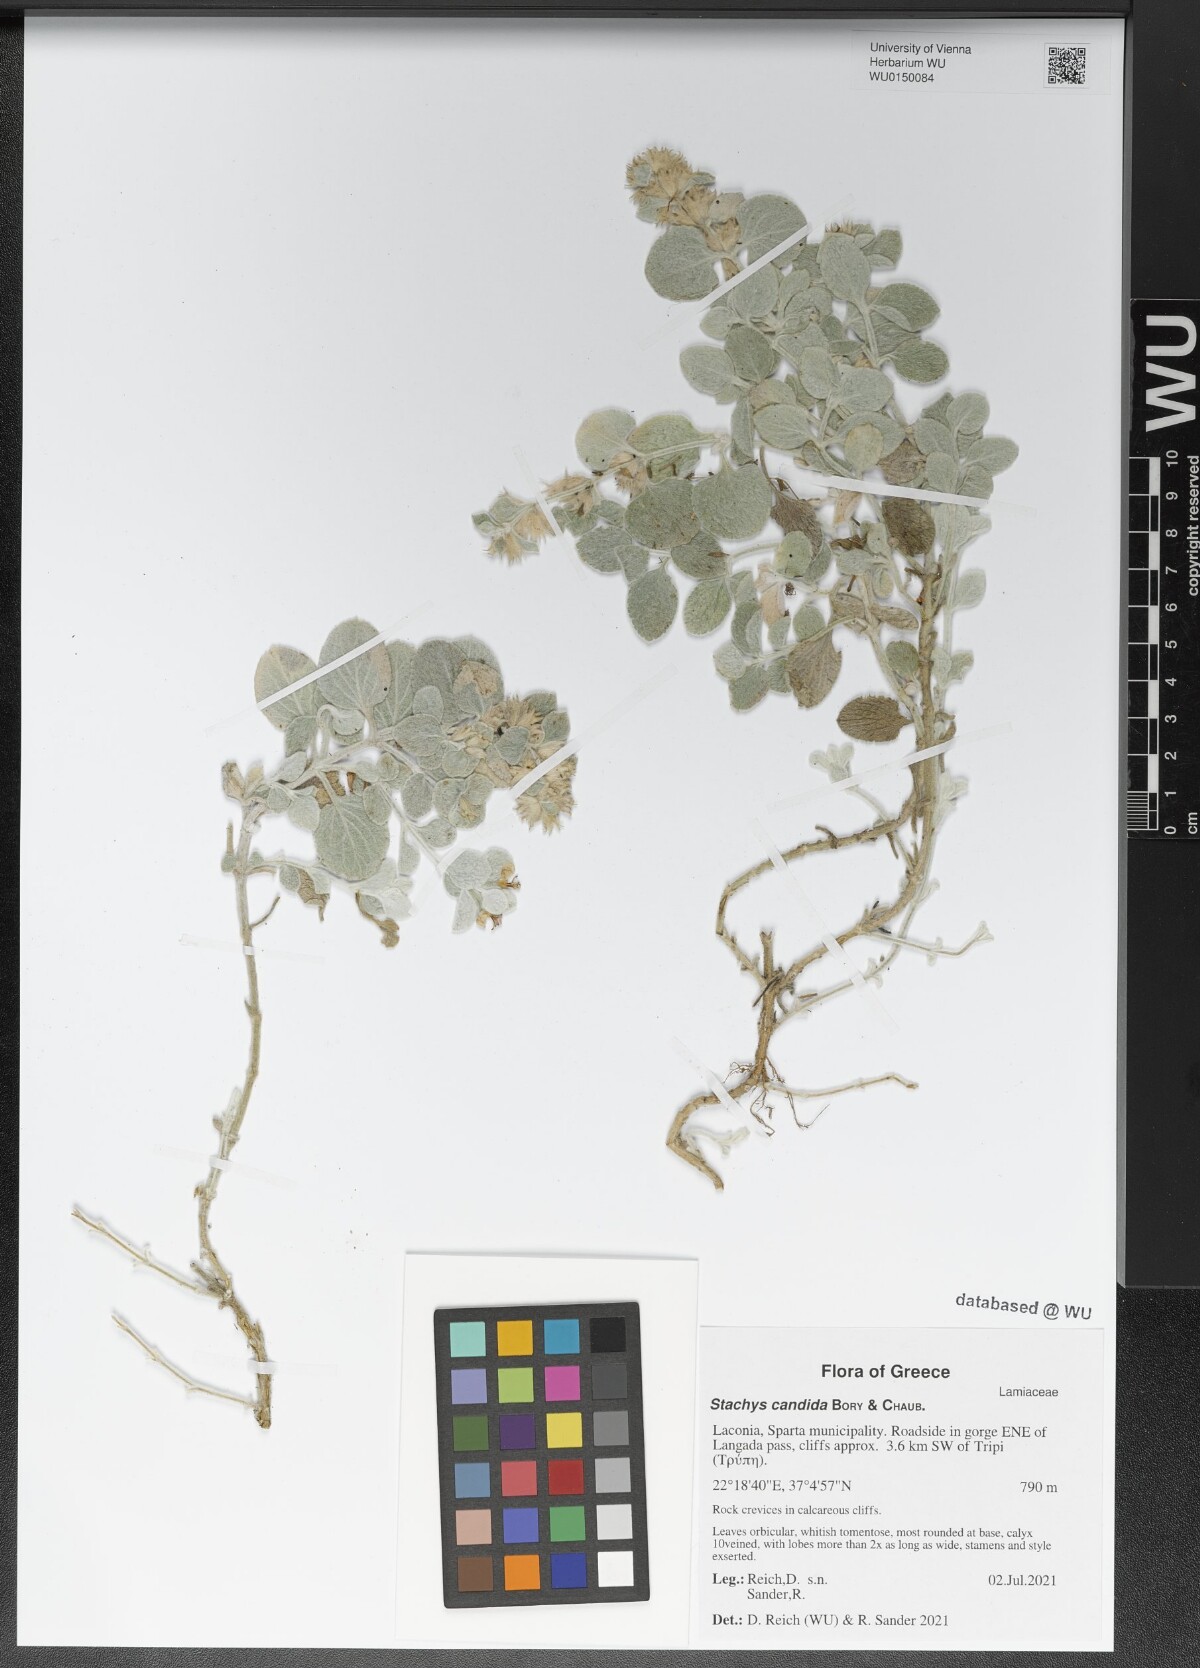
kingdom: Plantae
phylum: Tracheophyta
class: Magnoliopsida
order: Lamiales
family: Lamiaceae
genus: Stachys
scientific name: Stachys candida
